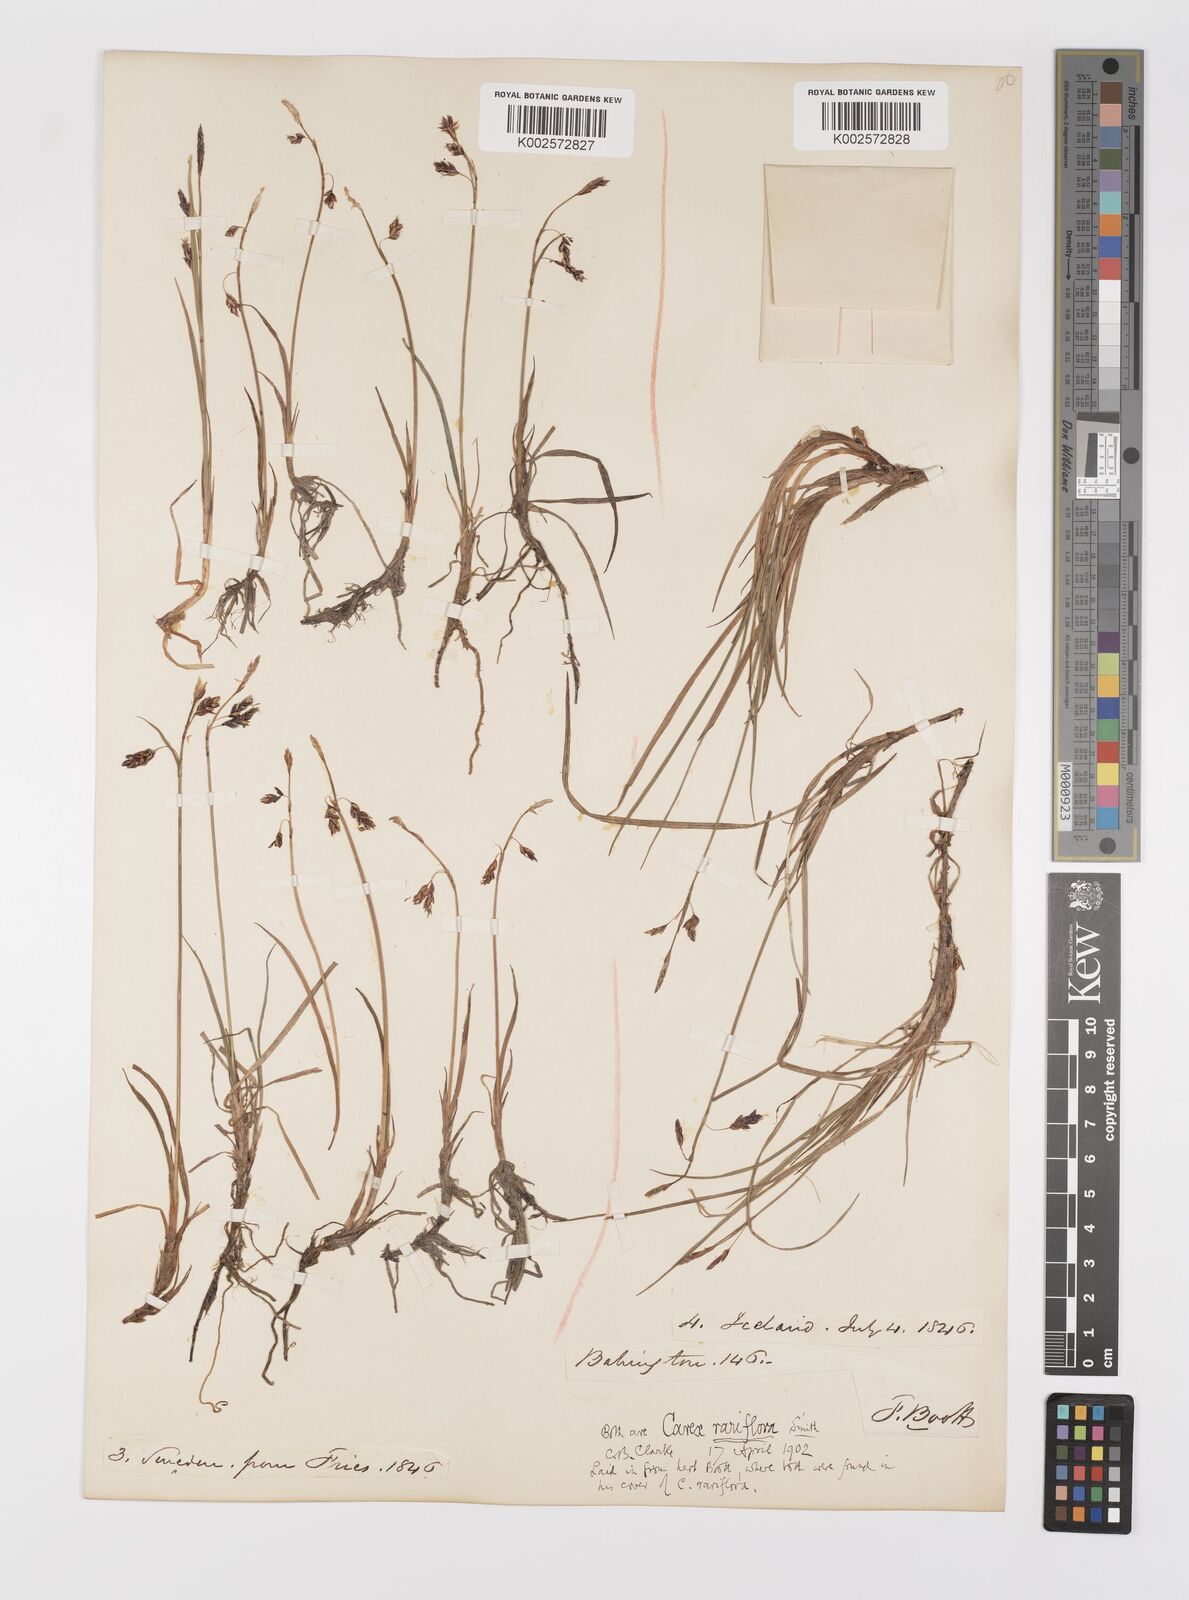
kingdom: Plantae
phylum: Tracheophyta
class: Liliopsida
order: Poales
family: Cyperaceae
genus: Carex
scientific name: Carex rariflora
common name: Loose-flowered alpine sedge
